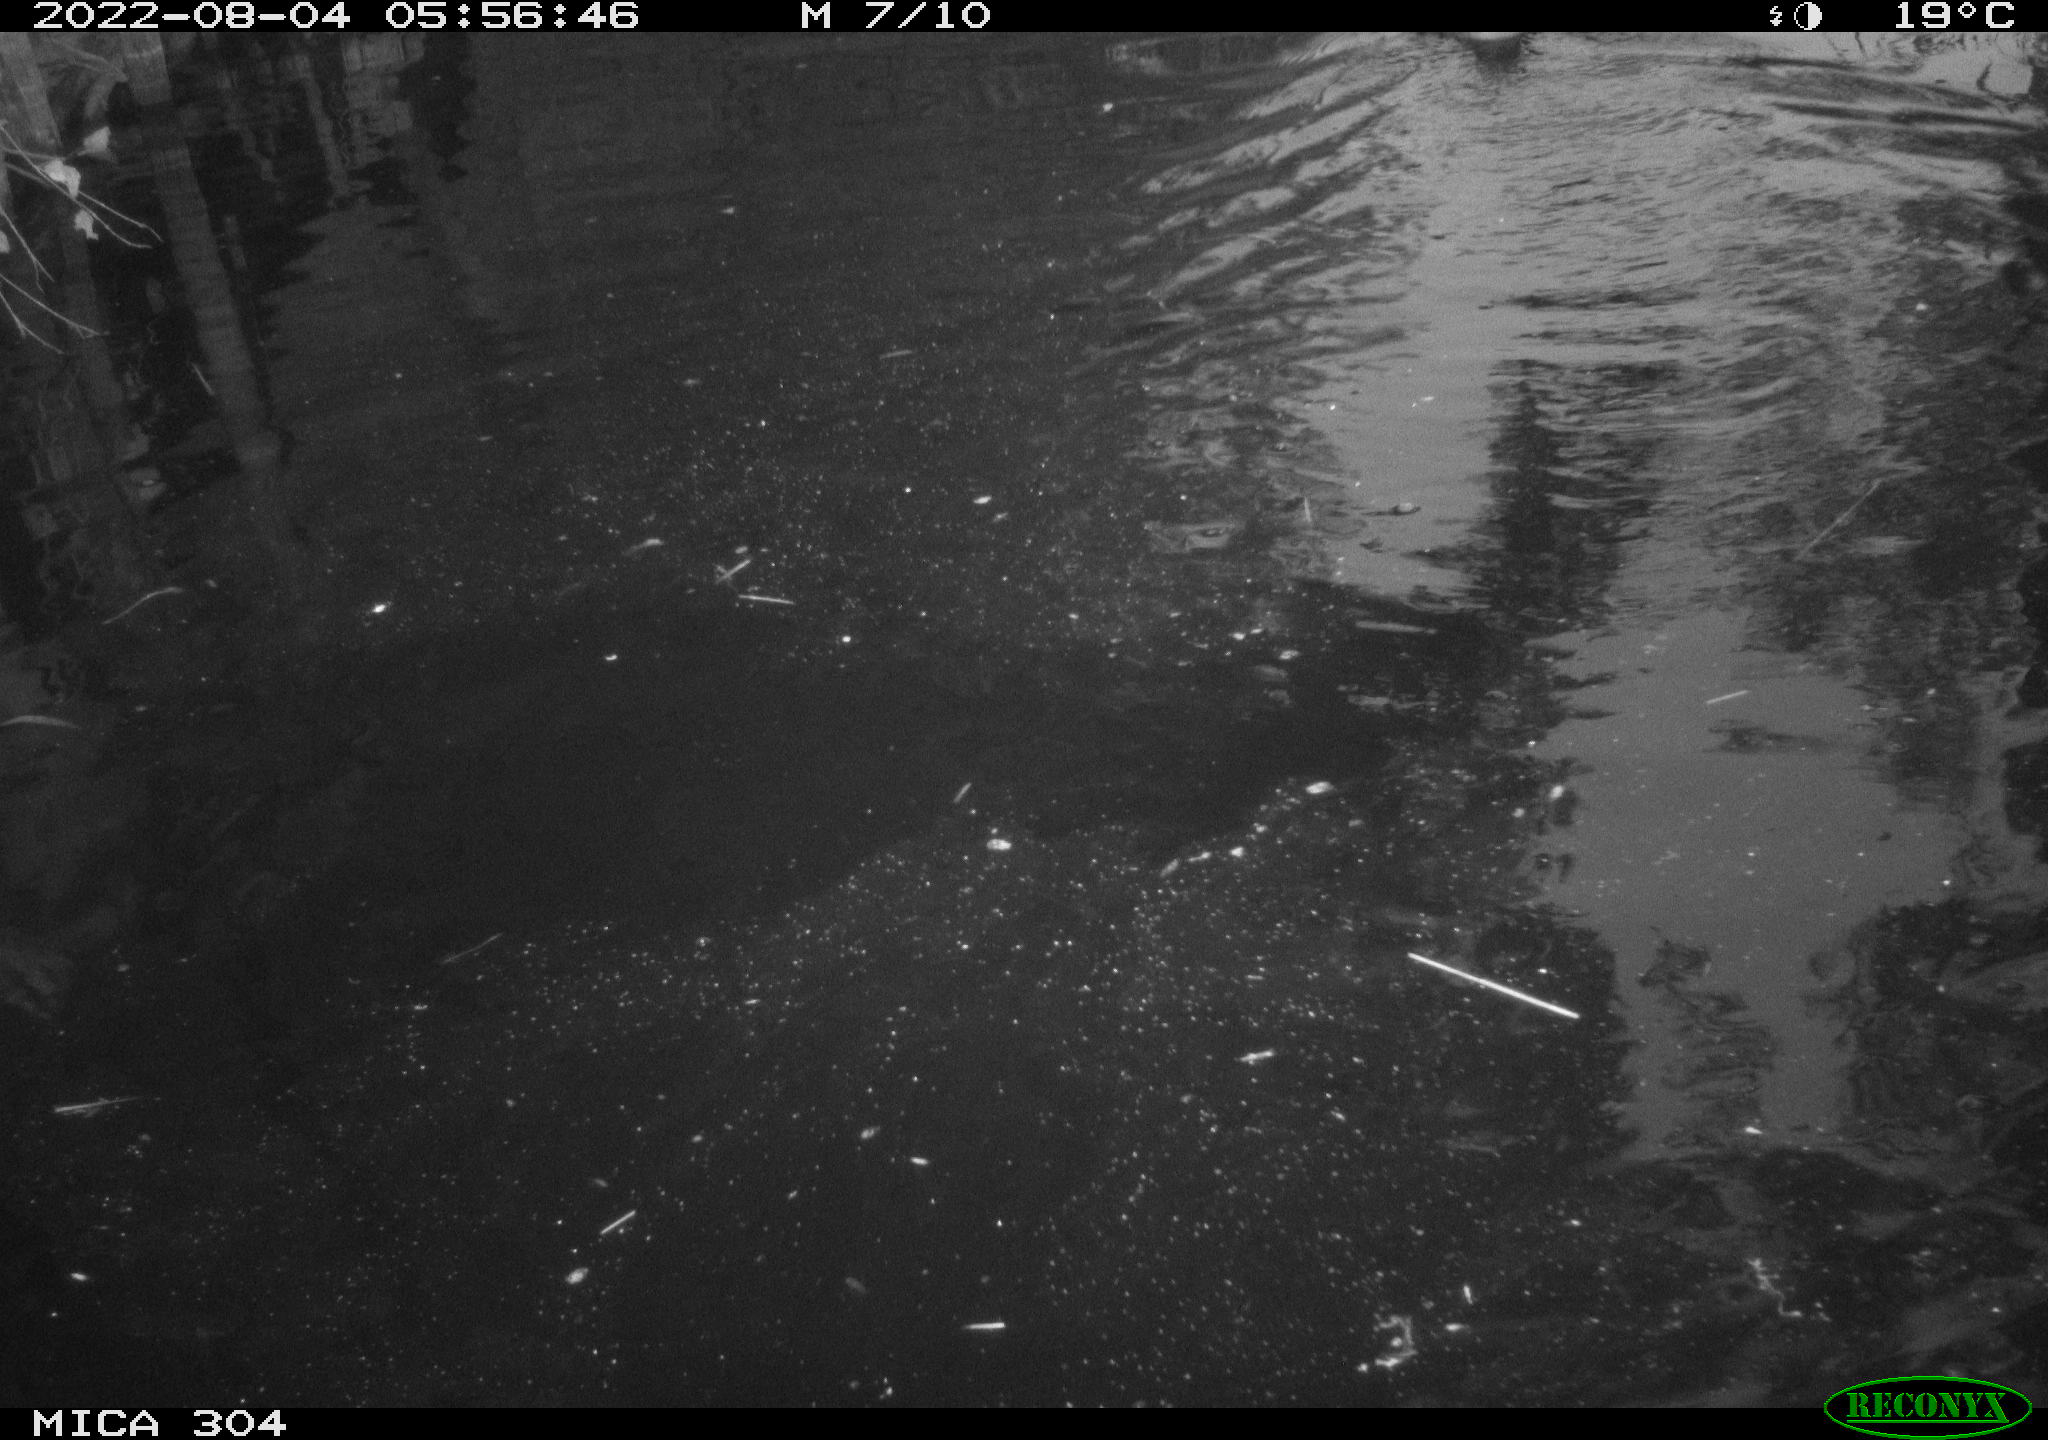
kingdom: Animalia
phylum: Chordata
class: Aves
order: Anseriformes
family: Anatidae
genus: Anas
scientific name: Anas platyrhynchos
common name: Mallard
